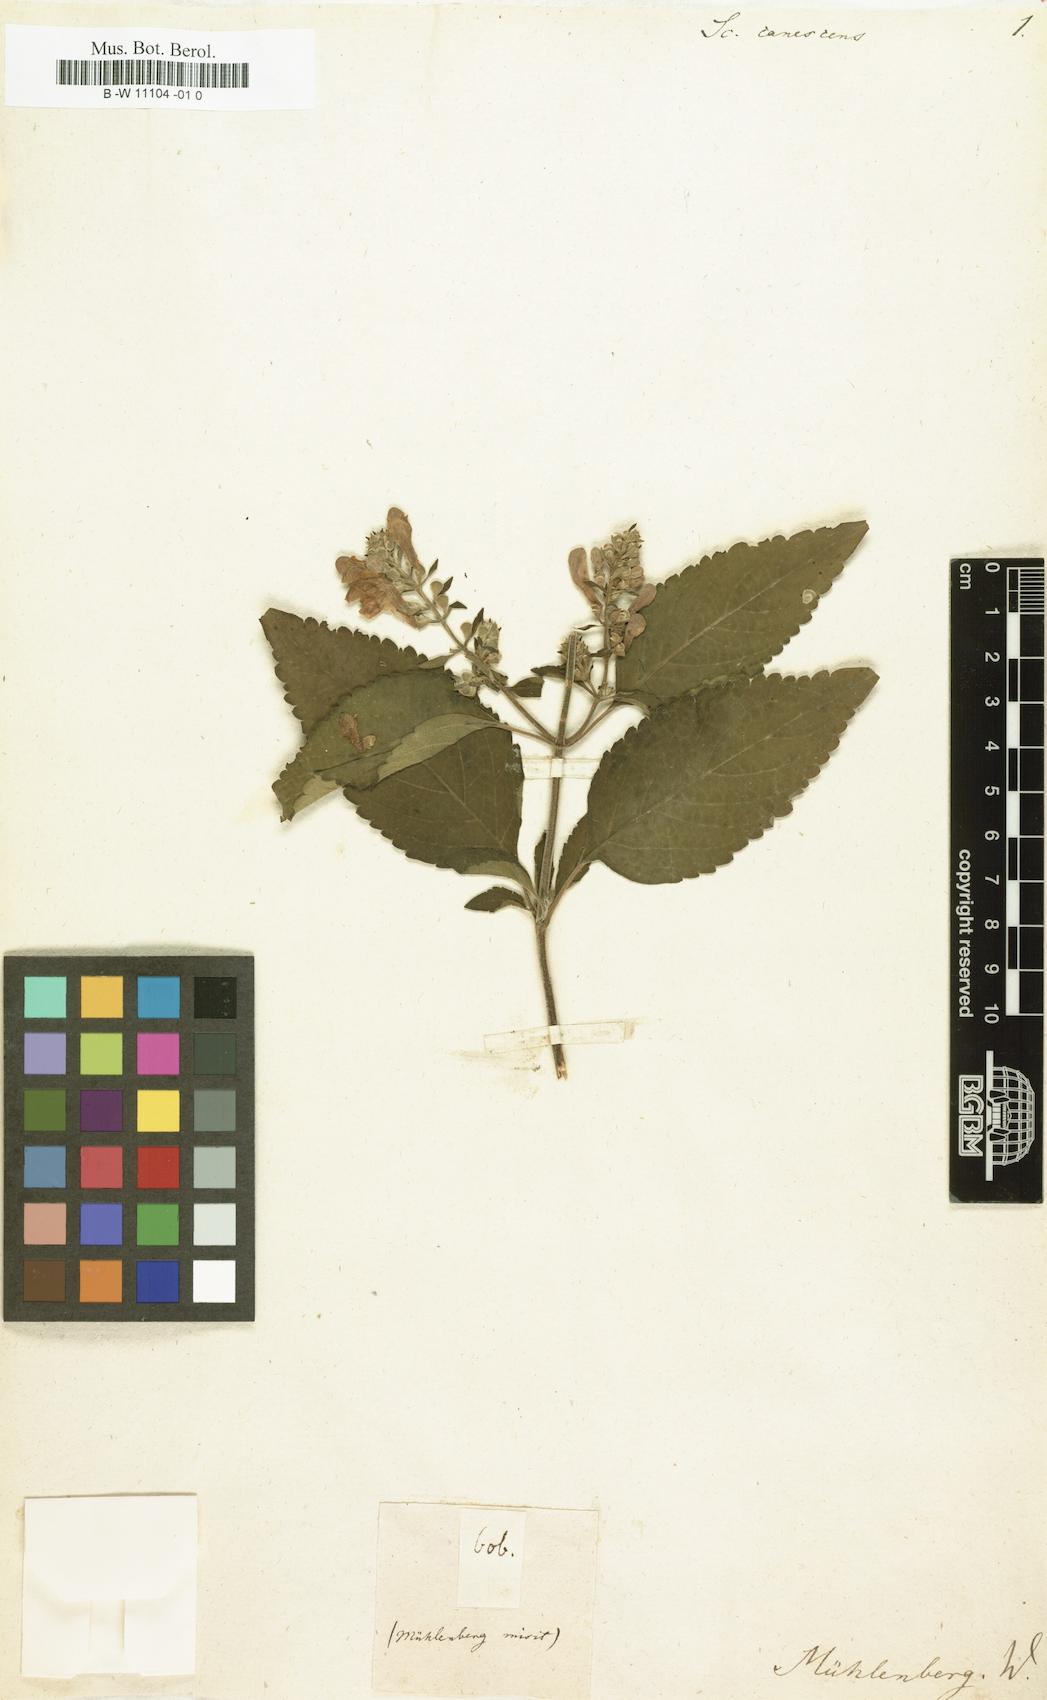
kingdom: Plantae
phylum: Tracheophyta
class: Magnoliopsida
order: Lamiales
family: Lamiaceae
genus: Scutellaria
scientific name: Scutellaria incana
